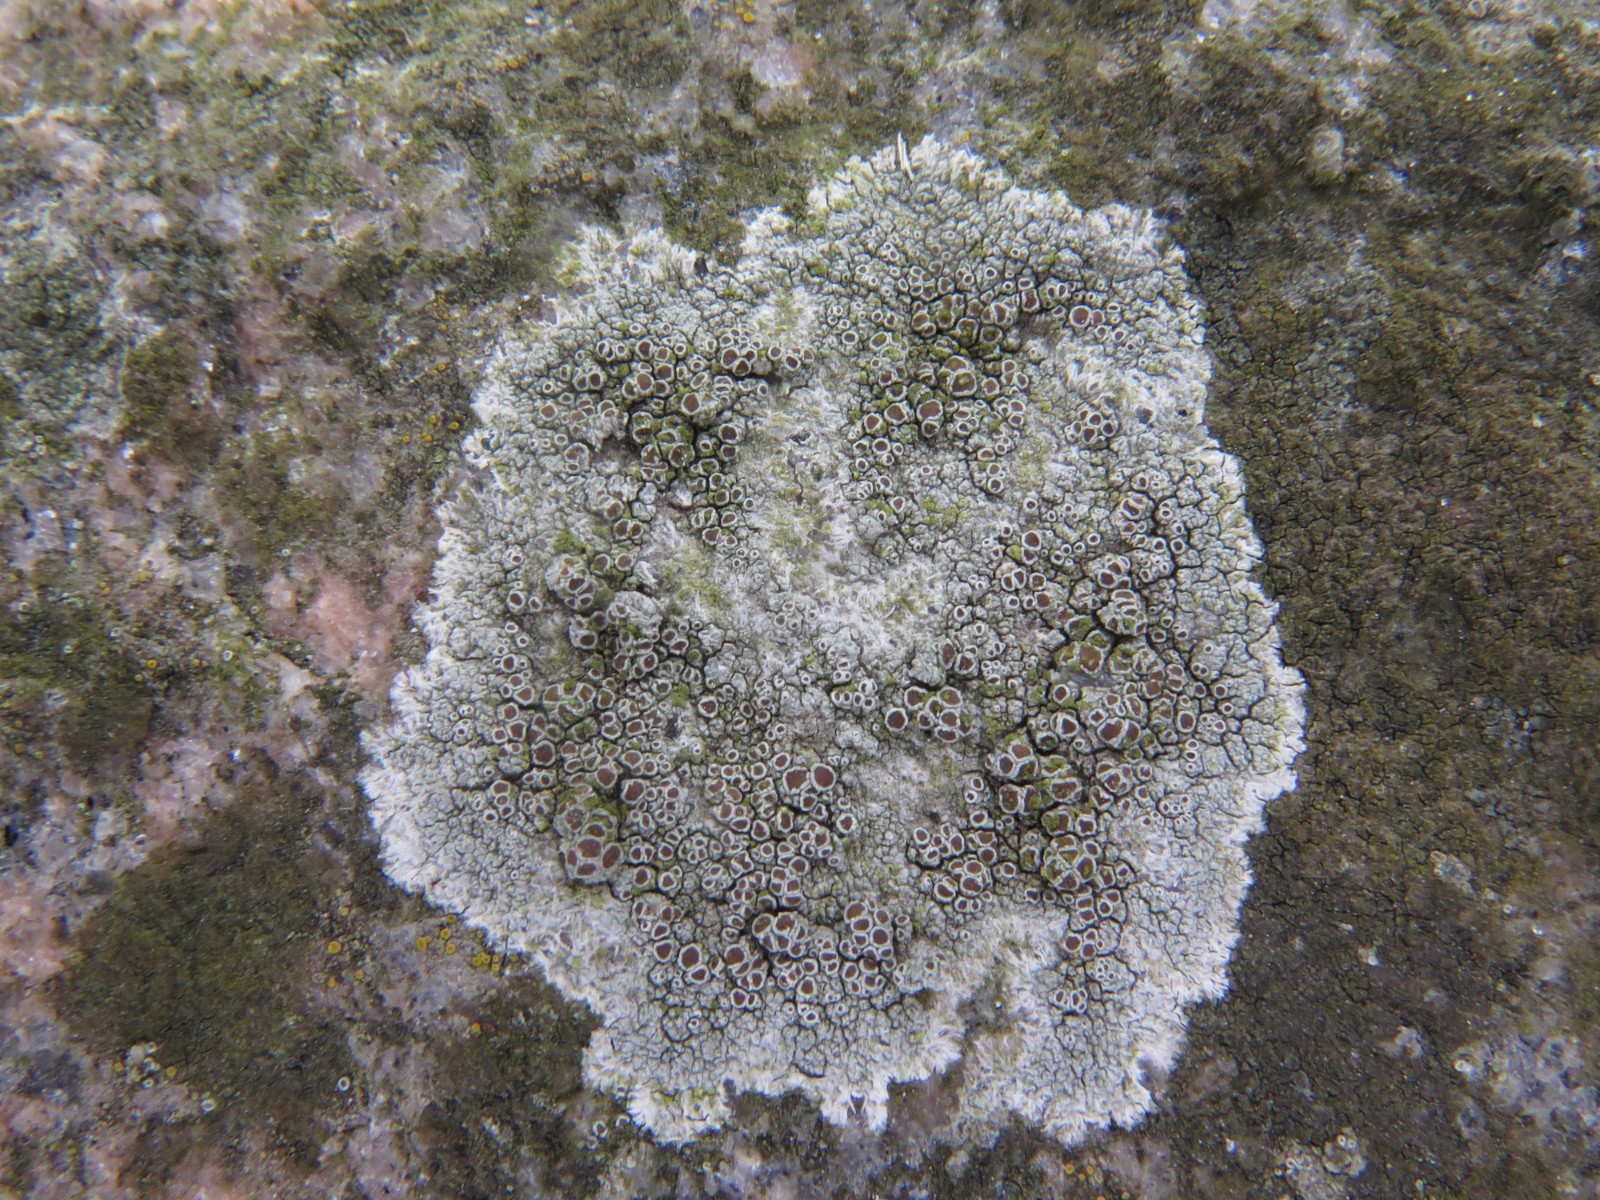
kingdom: Fungi
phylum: Ascomycota
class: Lecanoromycetes
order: Lecanorales
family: Lecanoraceae
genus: Lecanora
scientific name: Lecanora campestris
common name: mur-kantskivelav
